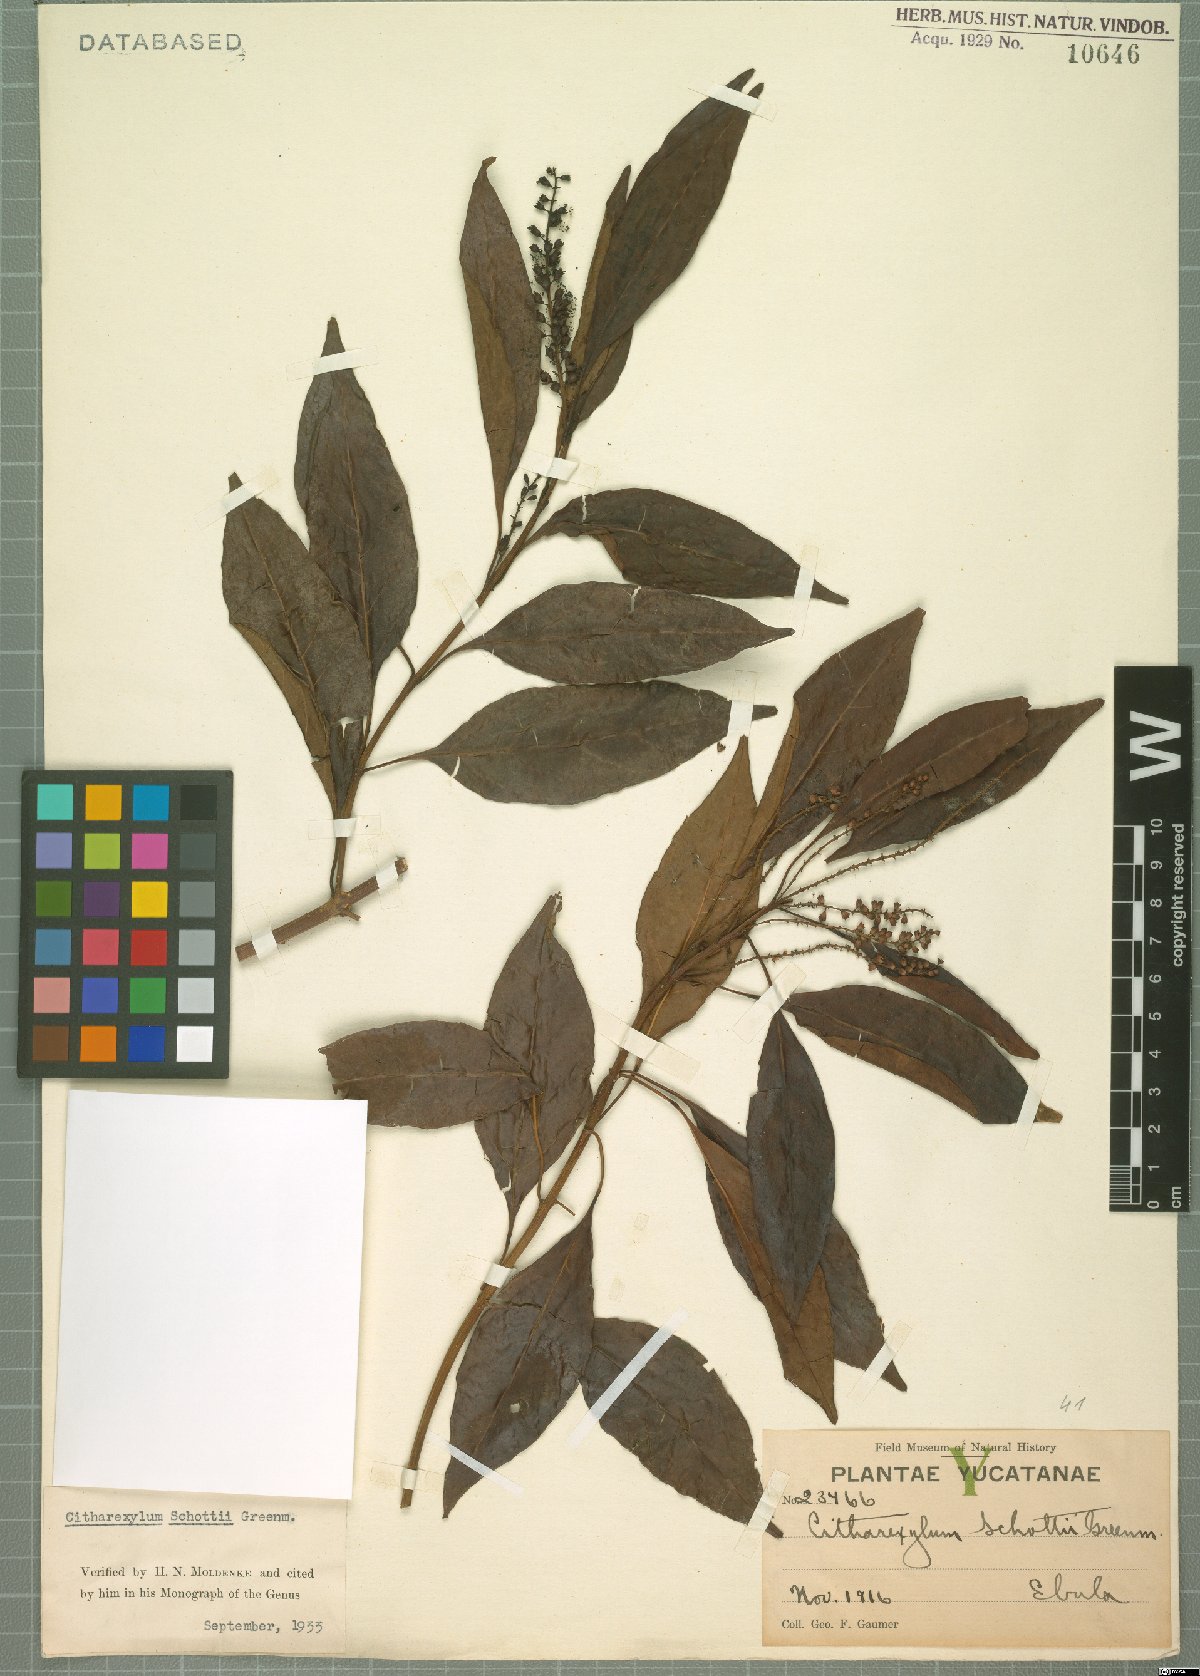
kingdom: Plantae
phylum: Tracheophyta
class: Magnoliopsida
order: Lamiales
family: Verbenaceae
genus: Citharexylum
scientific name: Citharexylum schottii
